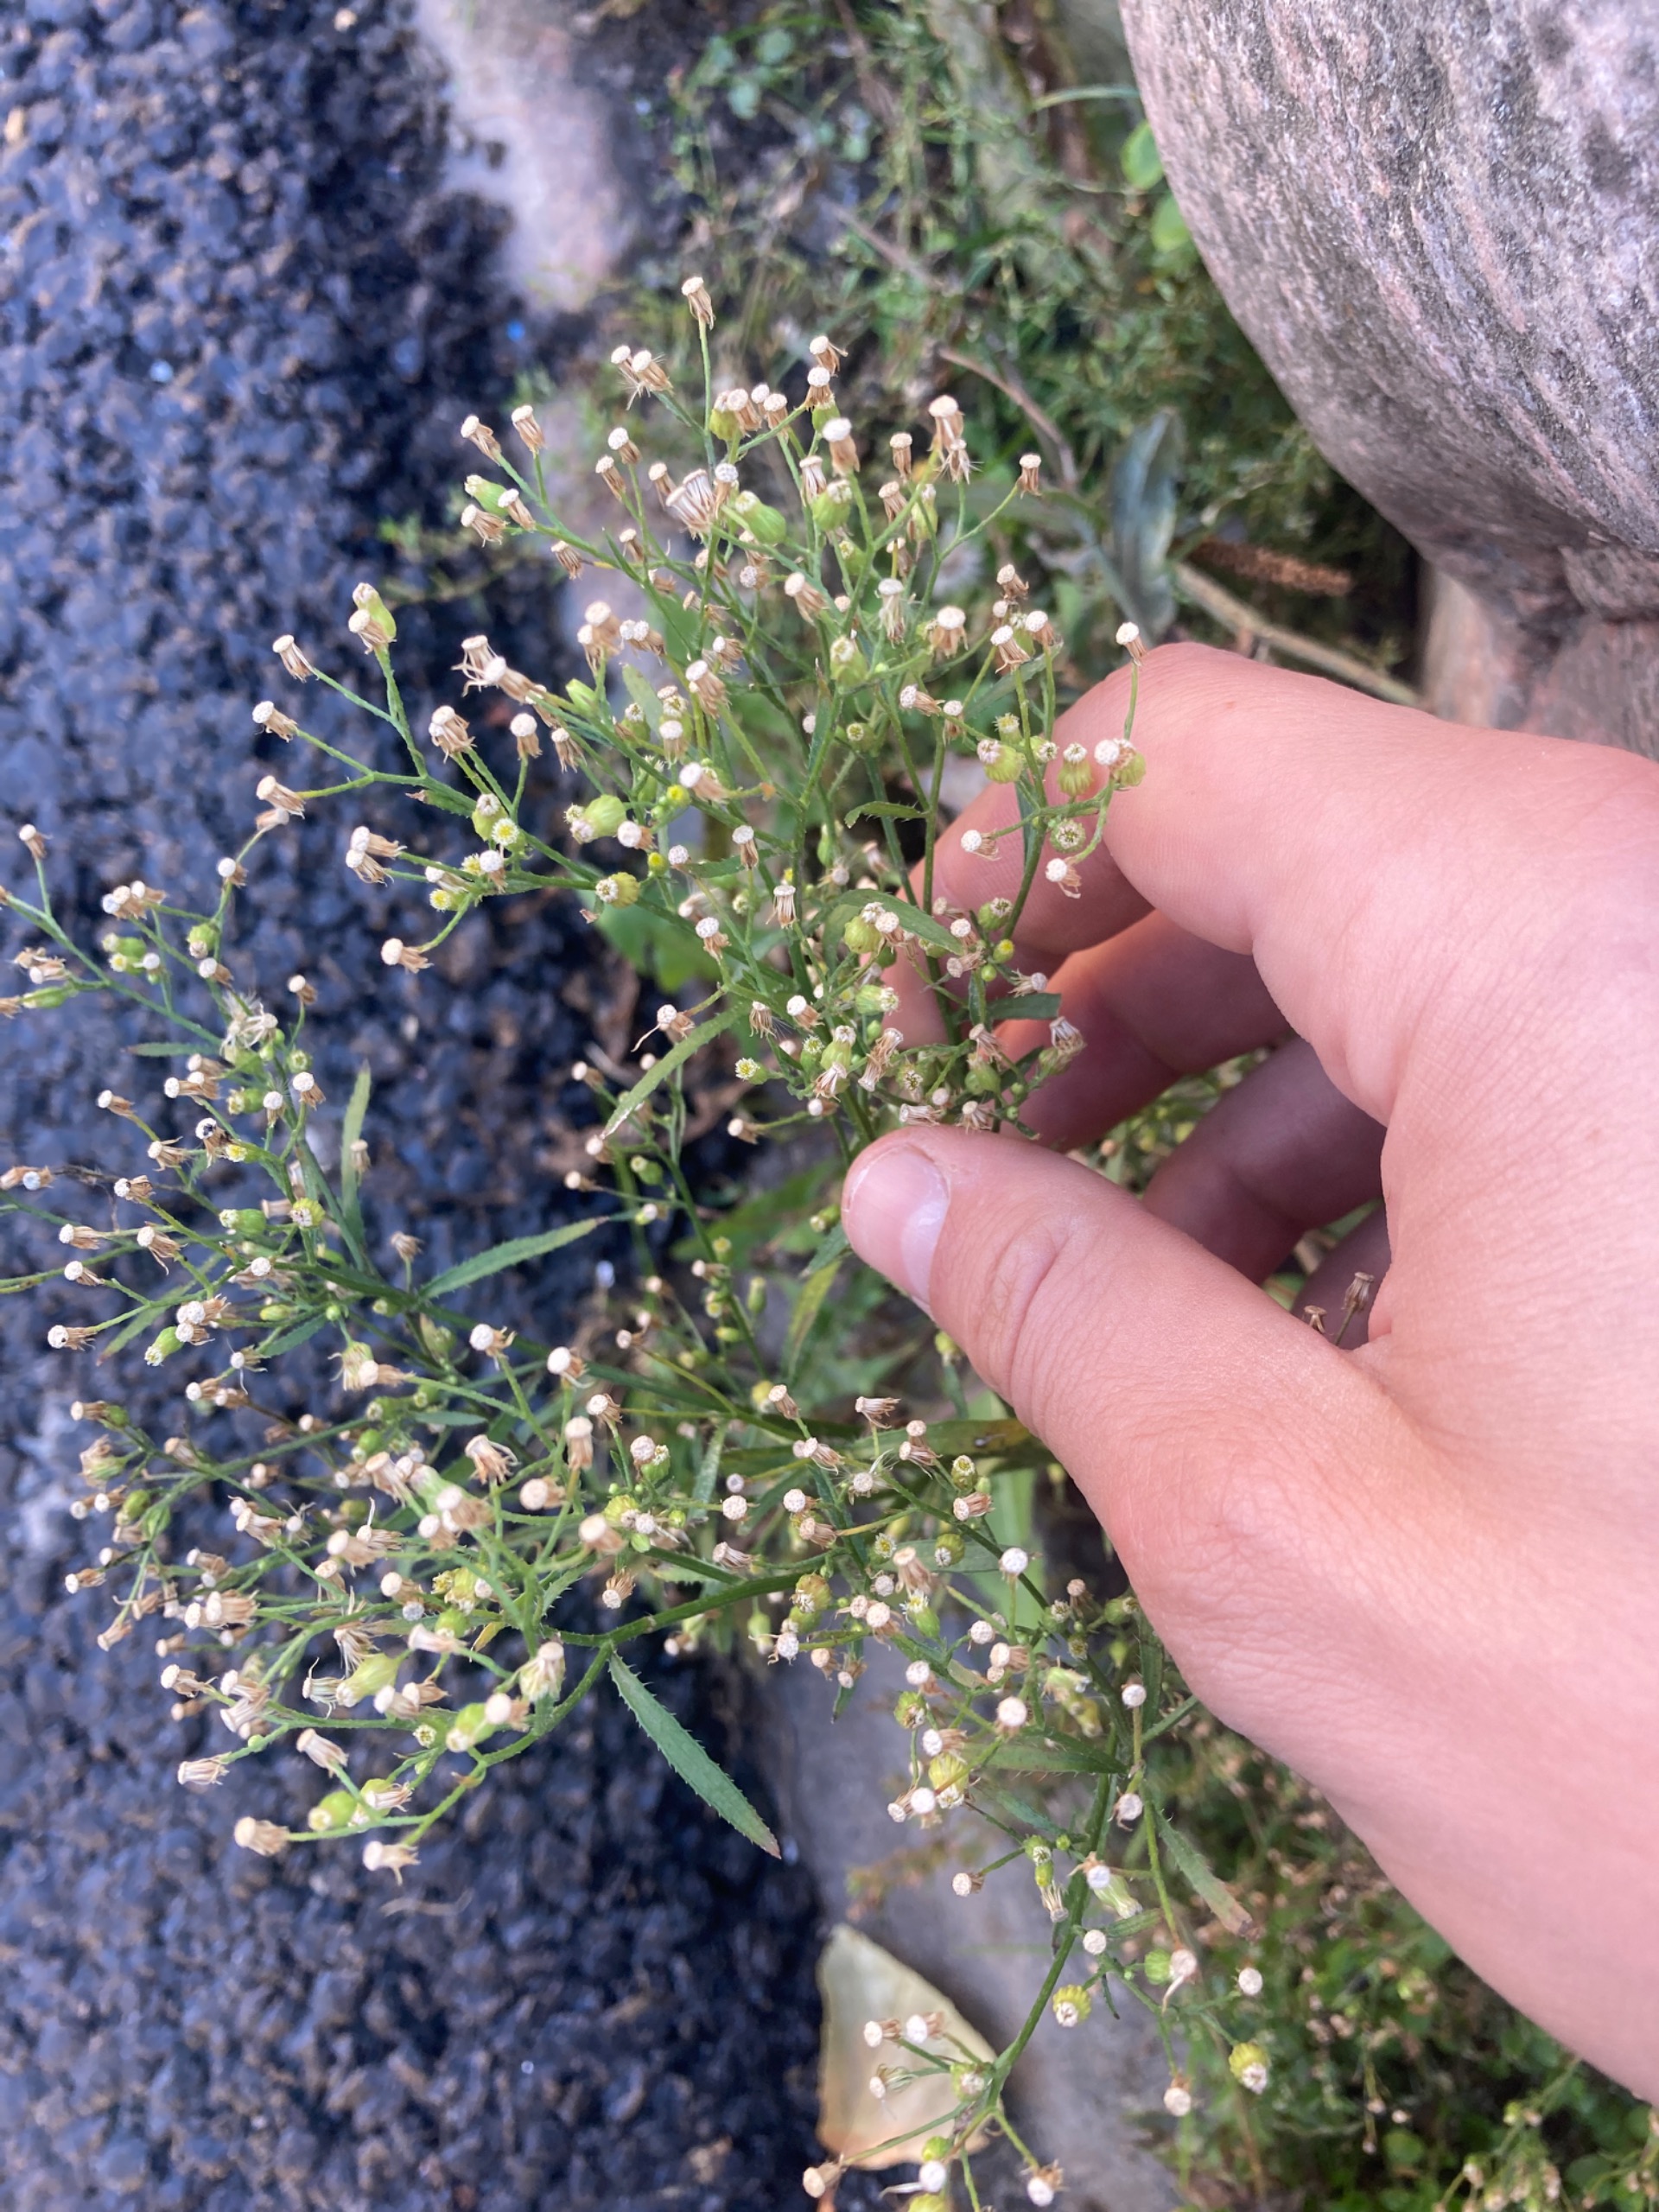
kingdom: Plantae
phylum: Tracheophyta
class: Magnoliopsida
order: Asterales
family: Asteraceae
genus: Erigeron
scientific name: Erigeron canadensis
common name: Kanadisk bakkestjerne
